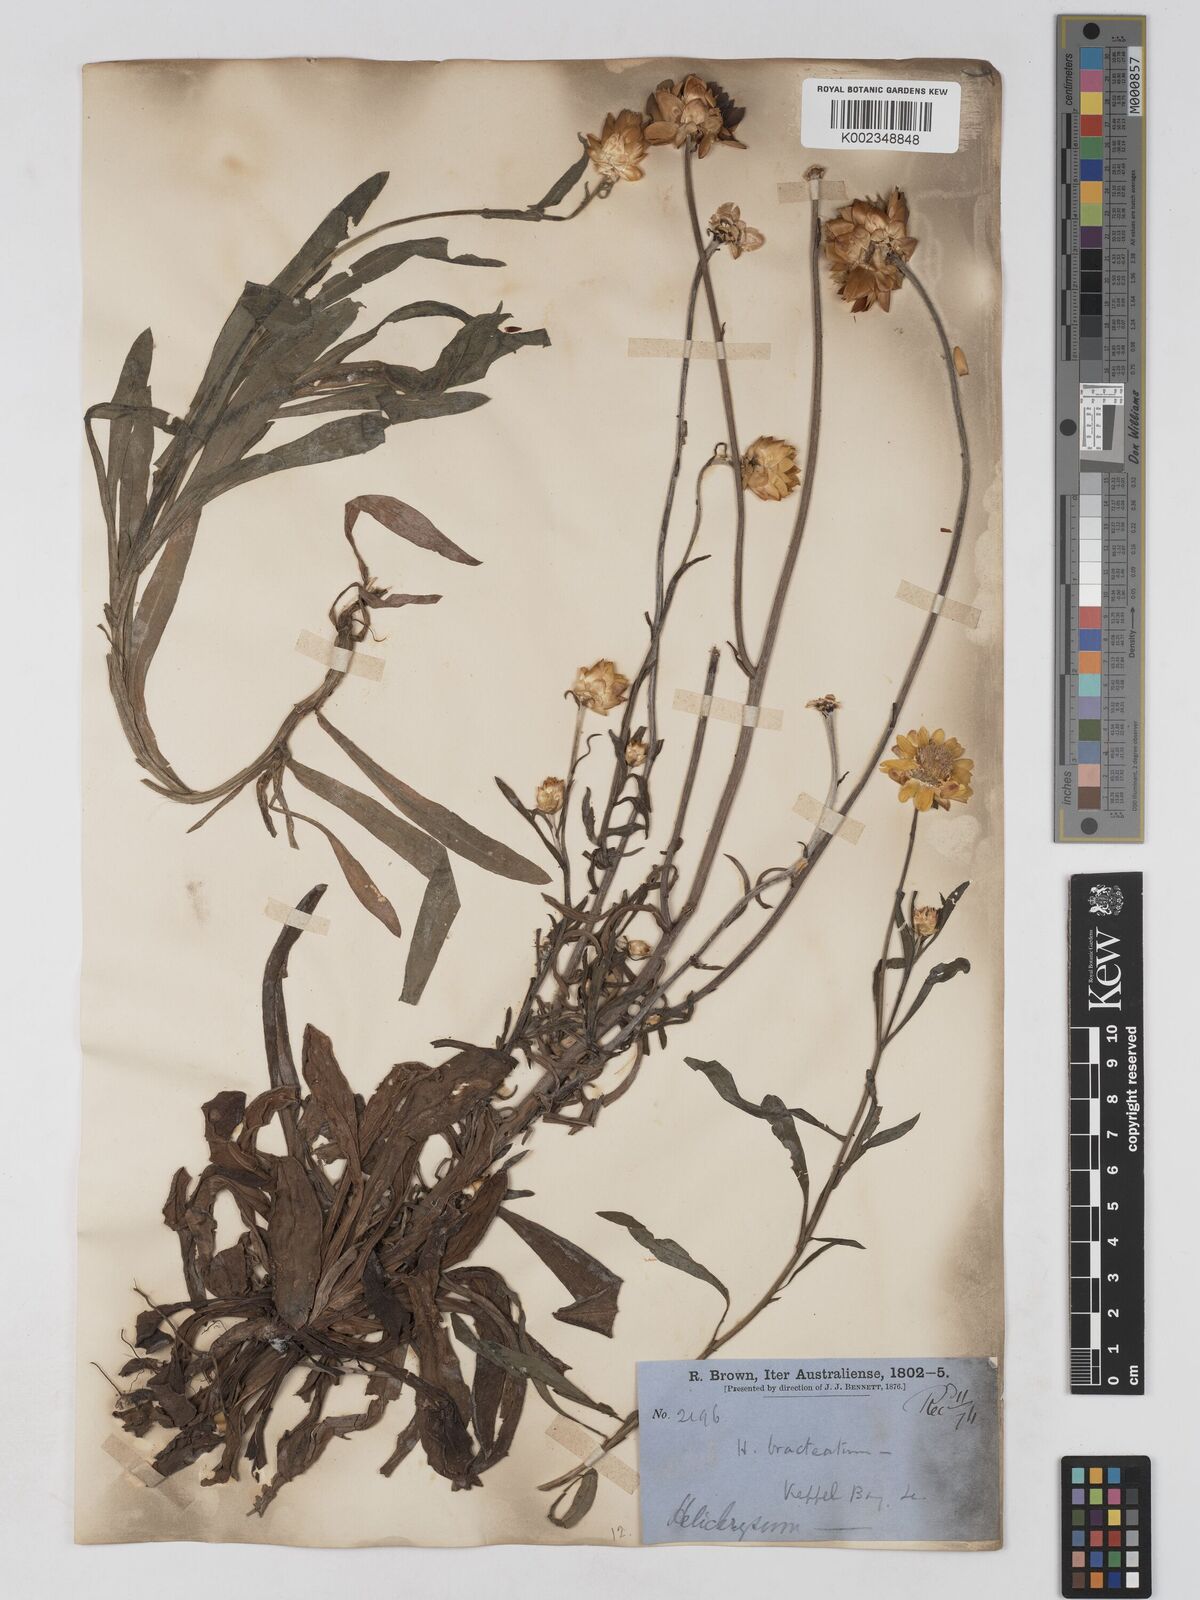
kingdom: Plantae
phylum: Tracheophyta
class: Magnoliopsida
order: Asterales
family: Asteraceae
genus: Xerochrysum
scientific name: Xerochrysum bracteatum
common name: Bracted strawflower
